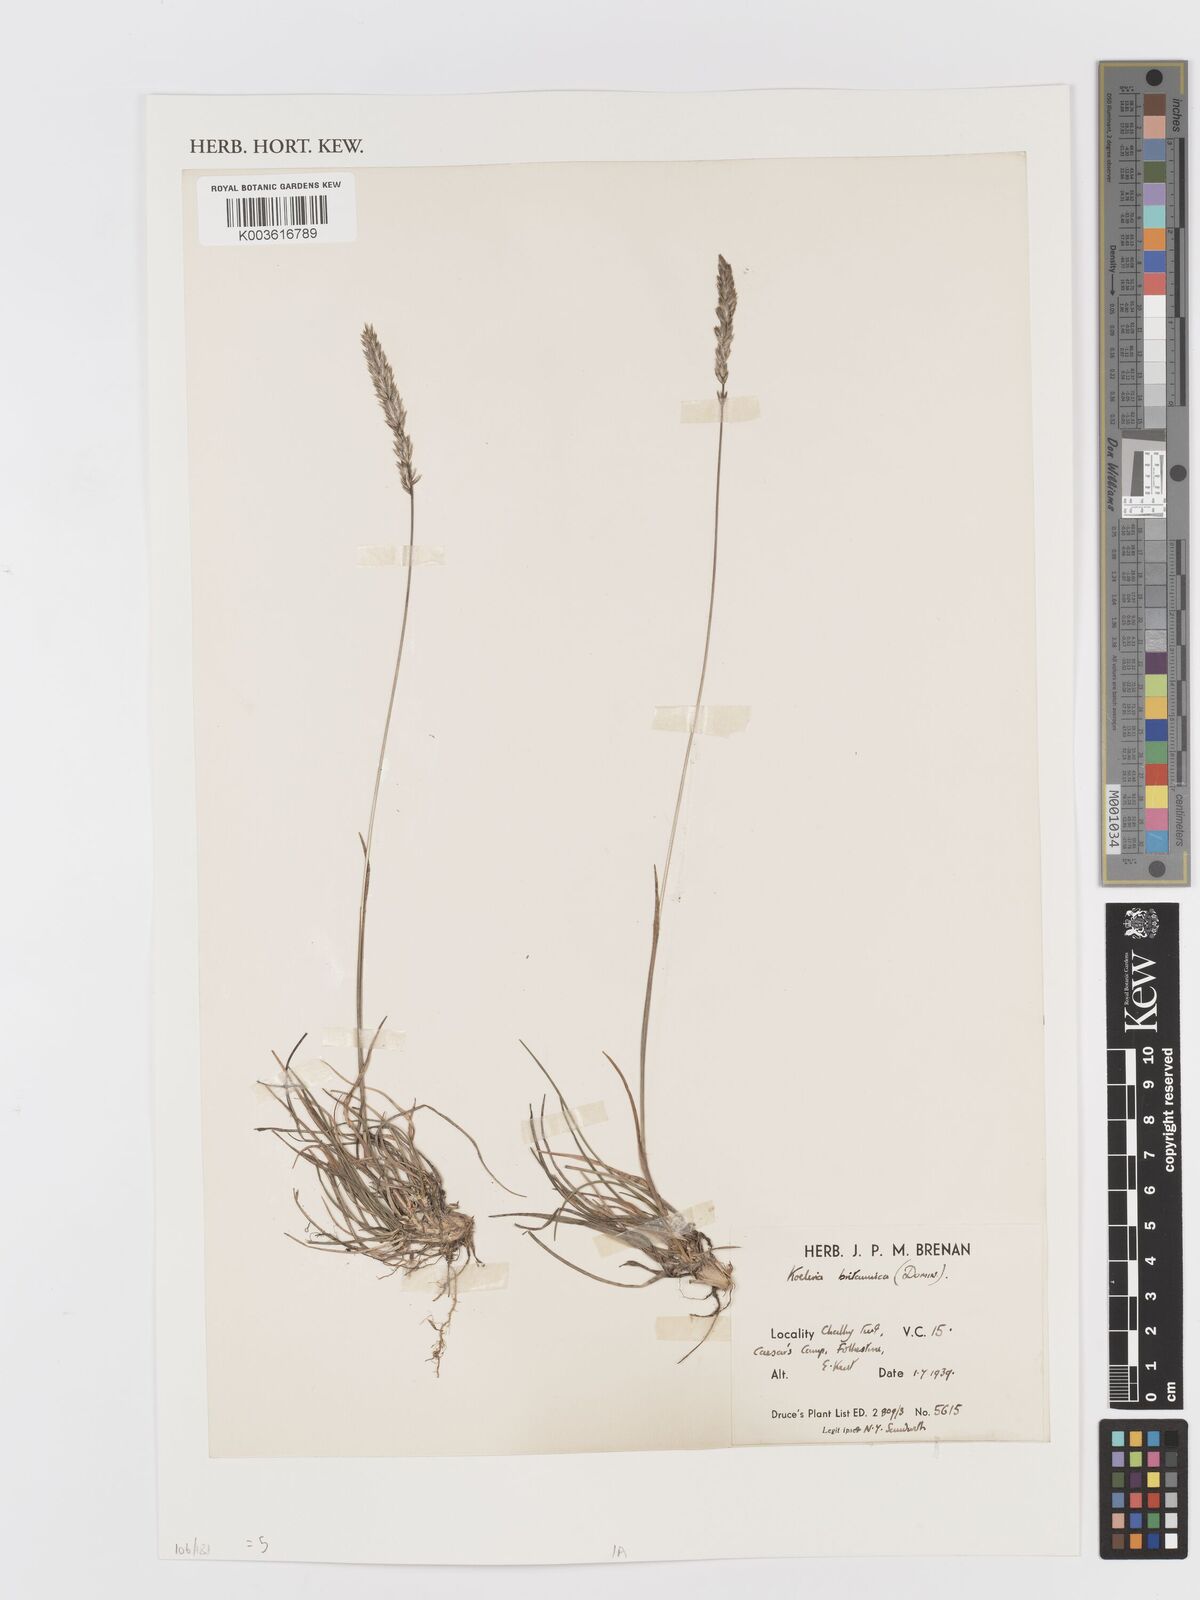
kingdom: Plantae
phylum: Tracheophyta
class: Liliopsida
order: Poales
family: Poaceae
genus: Koeleria
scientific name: Koeleria macrantha
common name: Crested hair-grass
